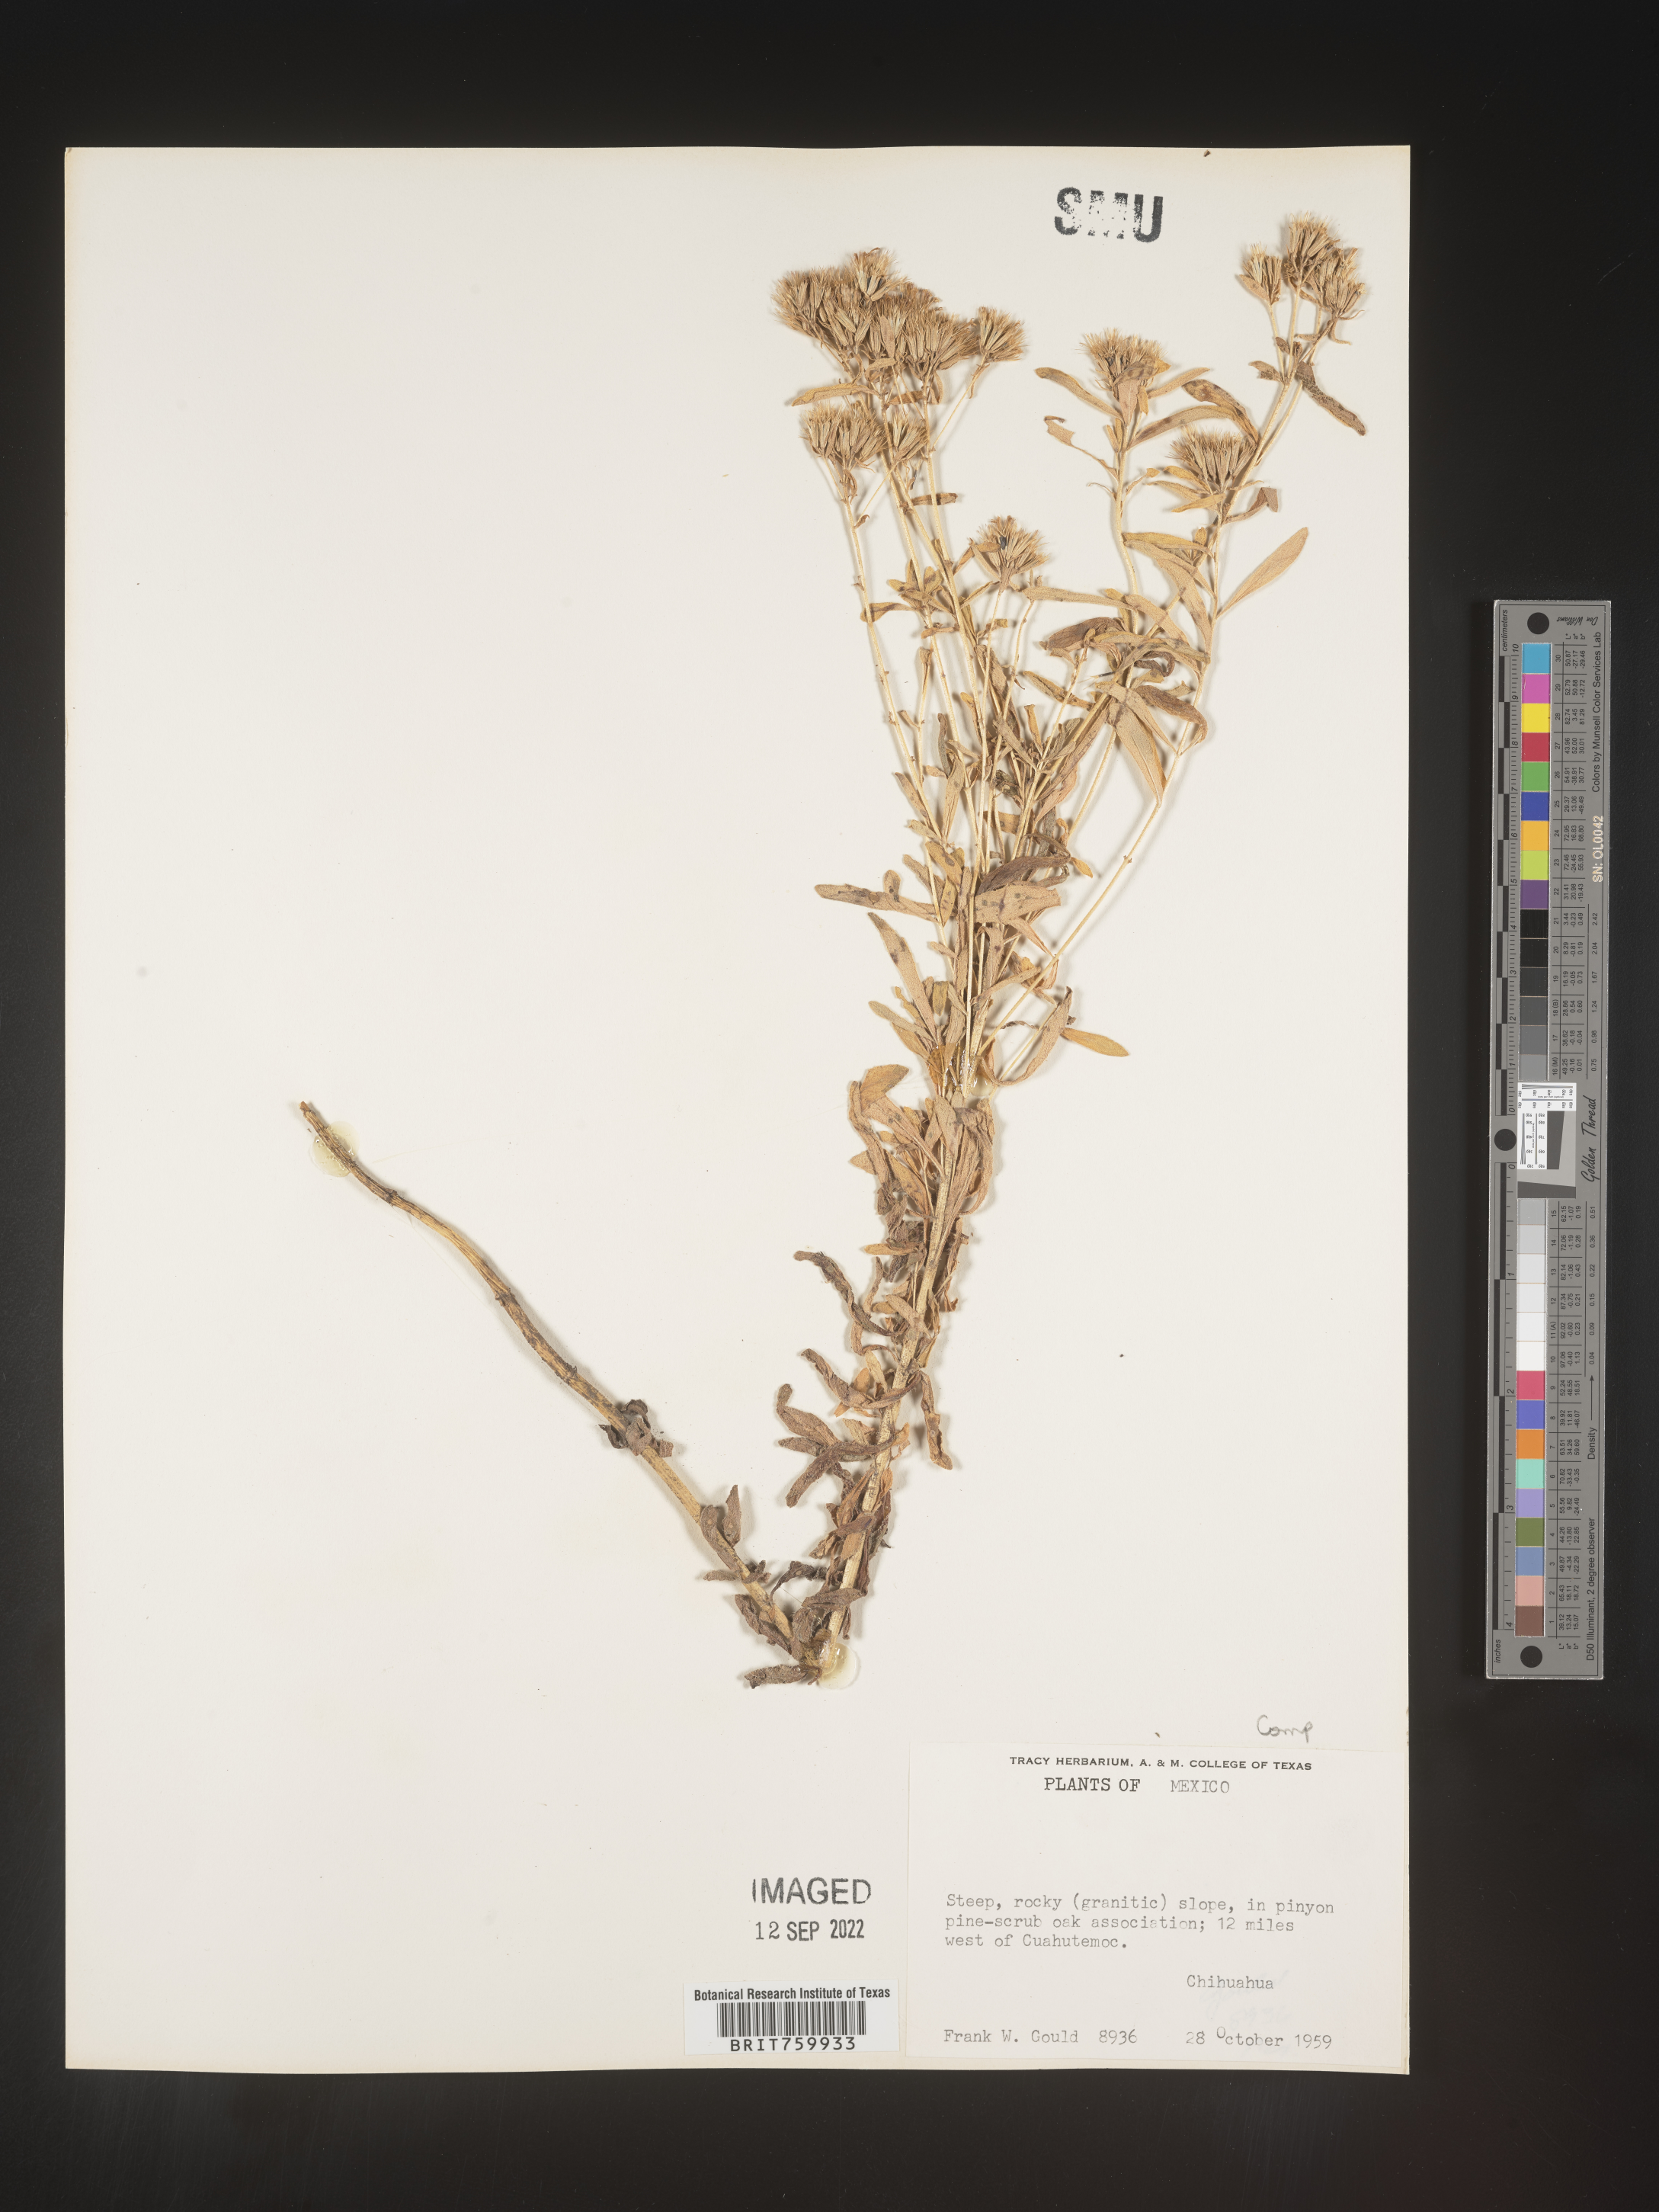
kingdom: Plantae
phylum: Tracheophyta
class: Magnoliopsida
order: Asterales
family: Asteraceae
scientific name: Asteraceae
